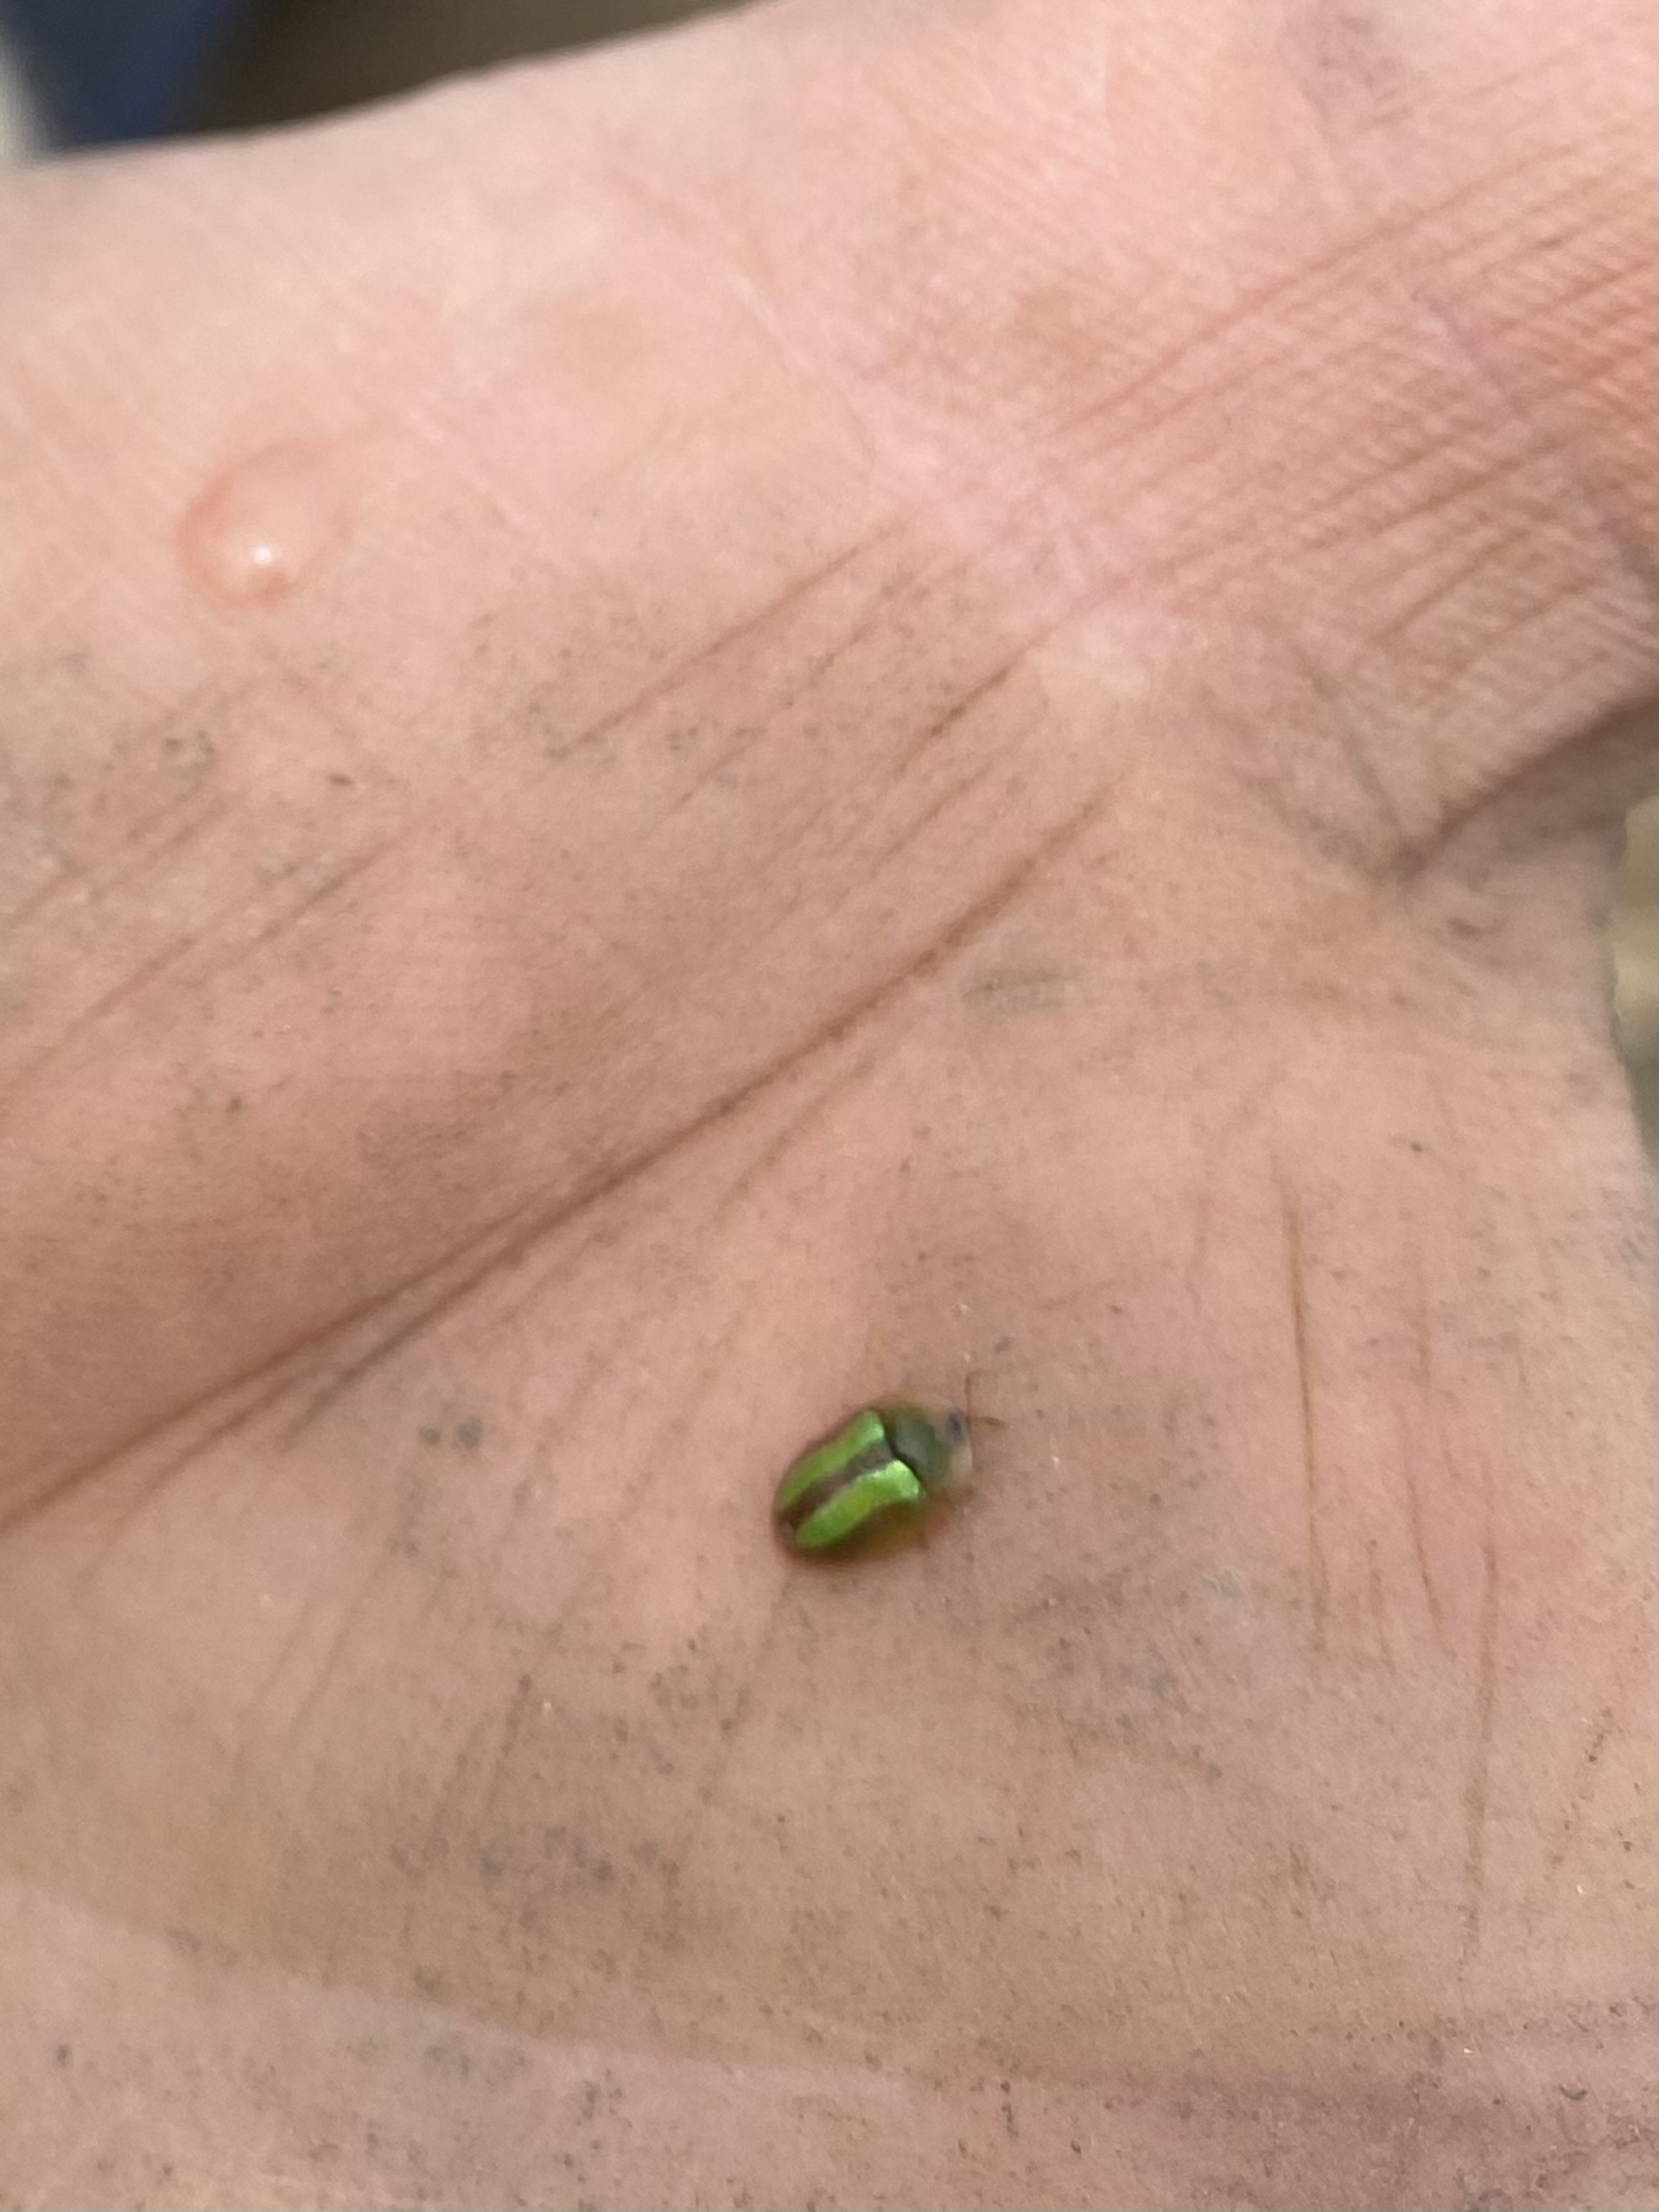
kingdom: Animalia
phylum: Arthropoda
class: Insecta
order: Coleoptera
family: Chrysomelidae
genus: Cassida
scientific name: Cassida vittata
